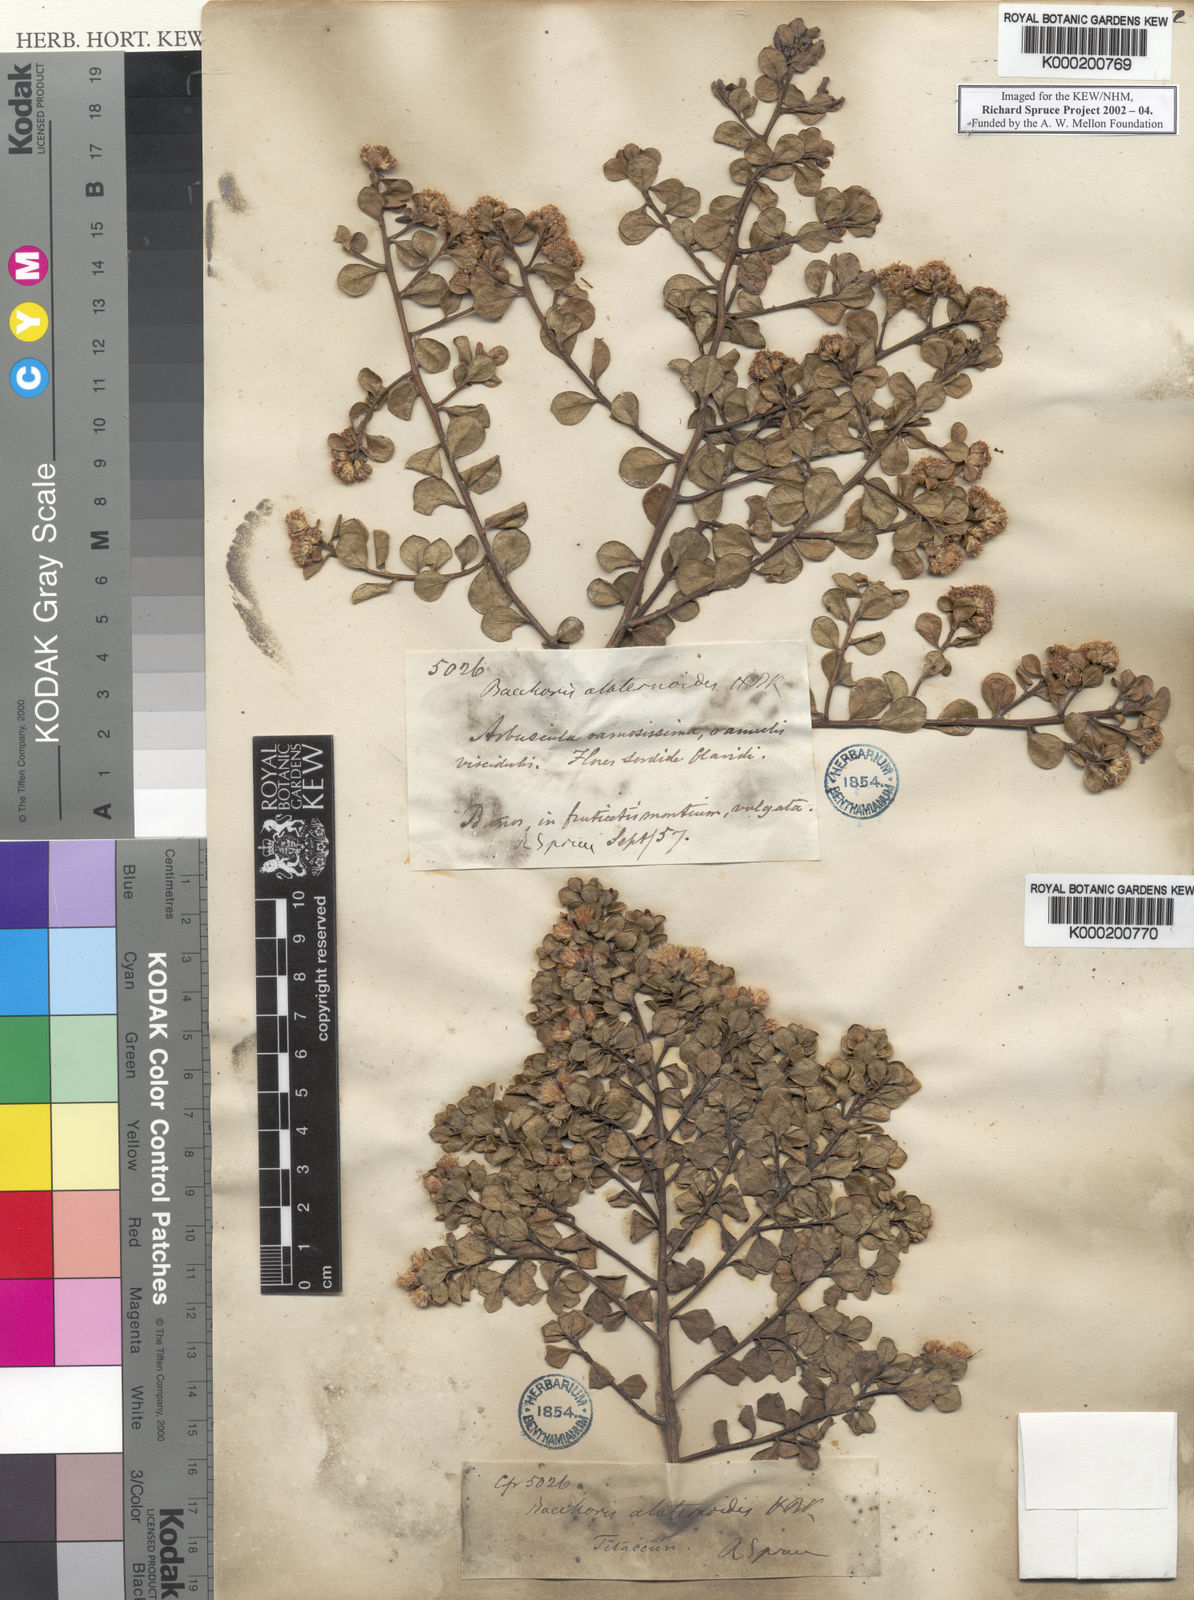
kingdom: Plantae
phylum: Tracheophyta
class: Magnoliopsida
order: Asterales
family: Asteraceae
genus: Baccharis
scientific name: Baccharis alaternoides
